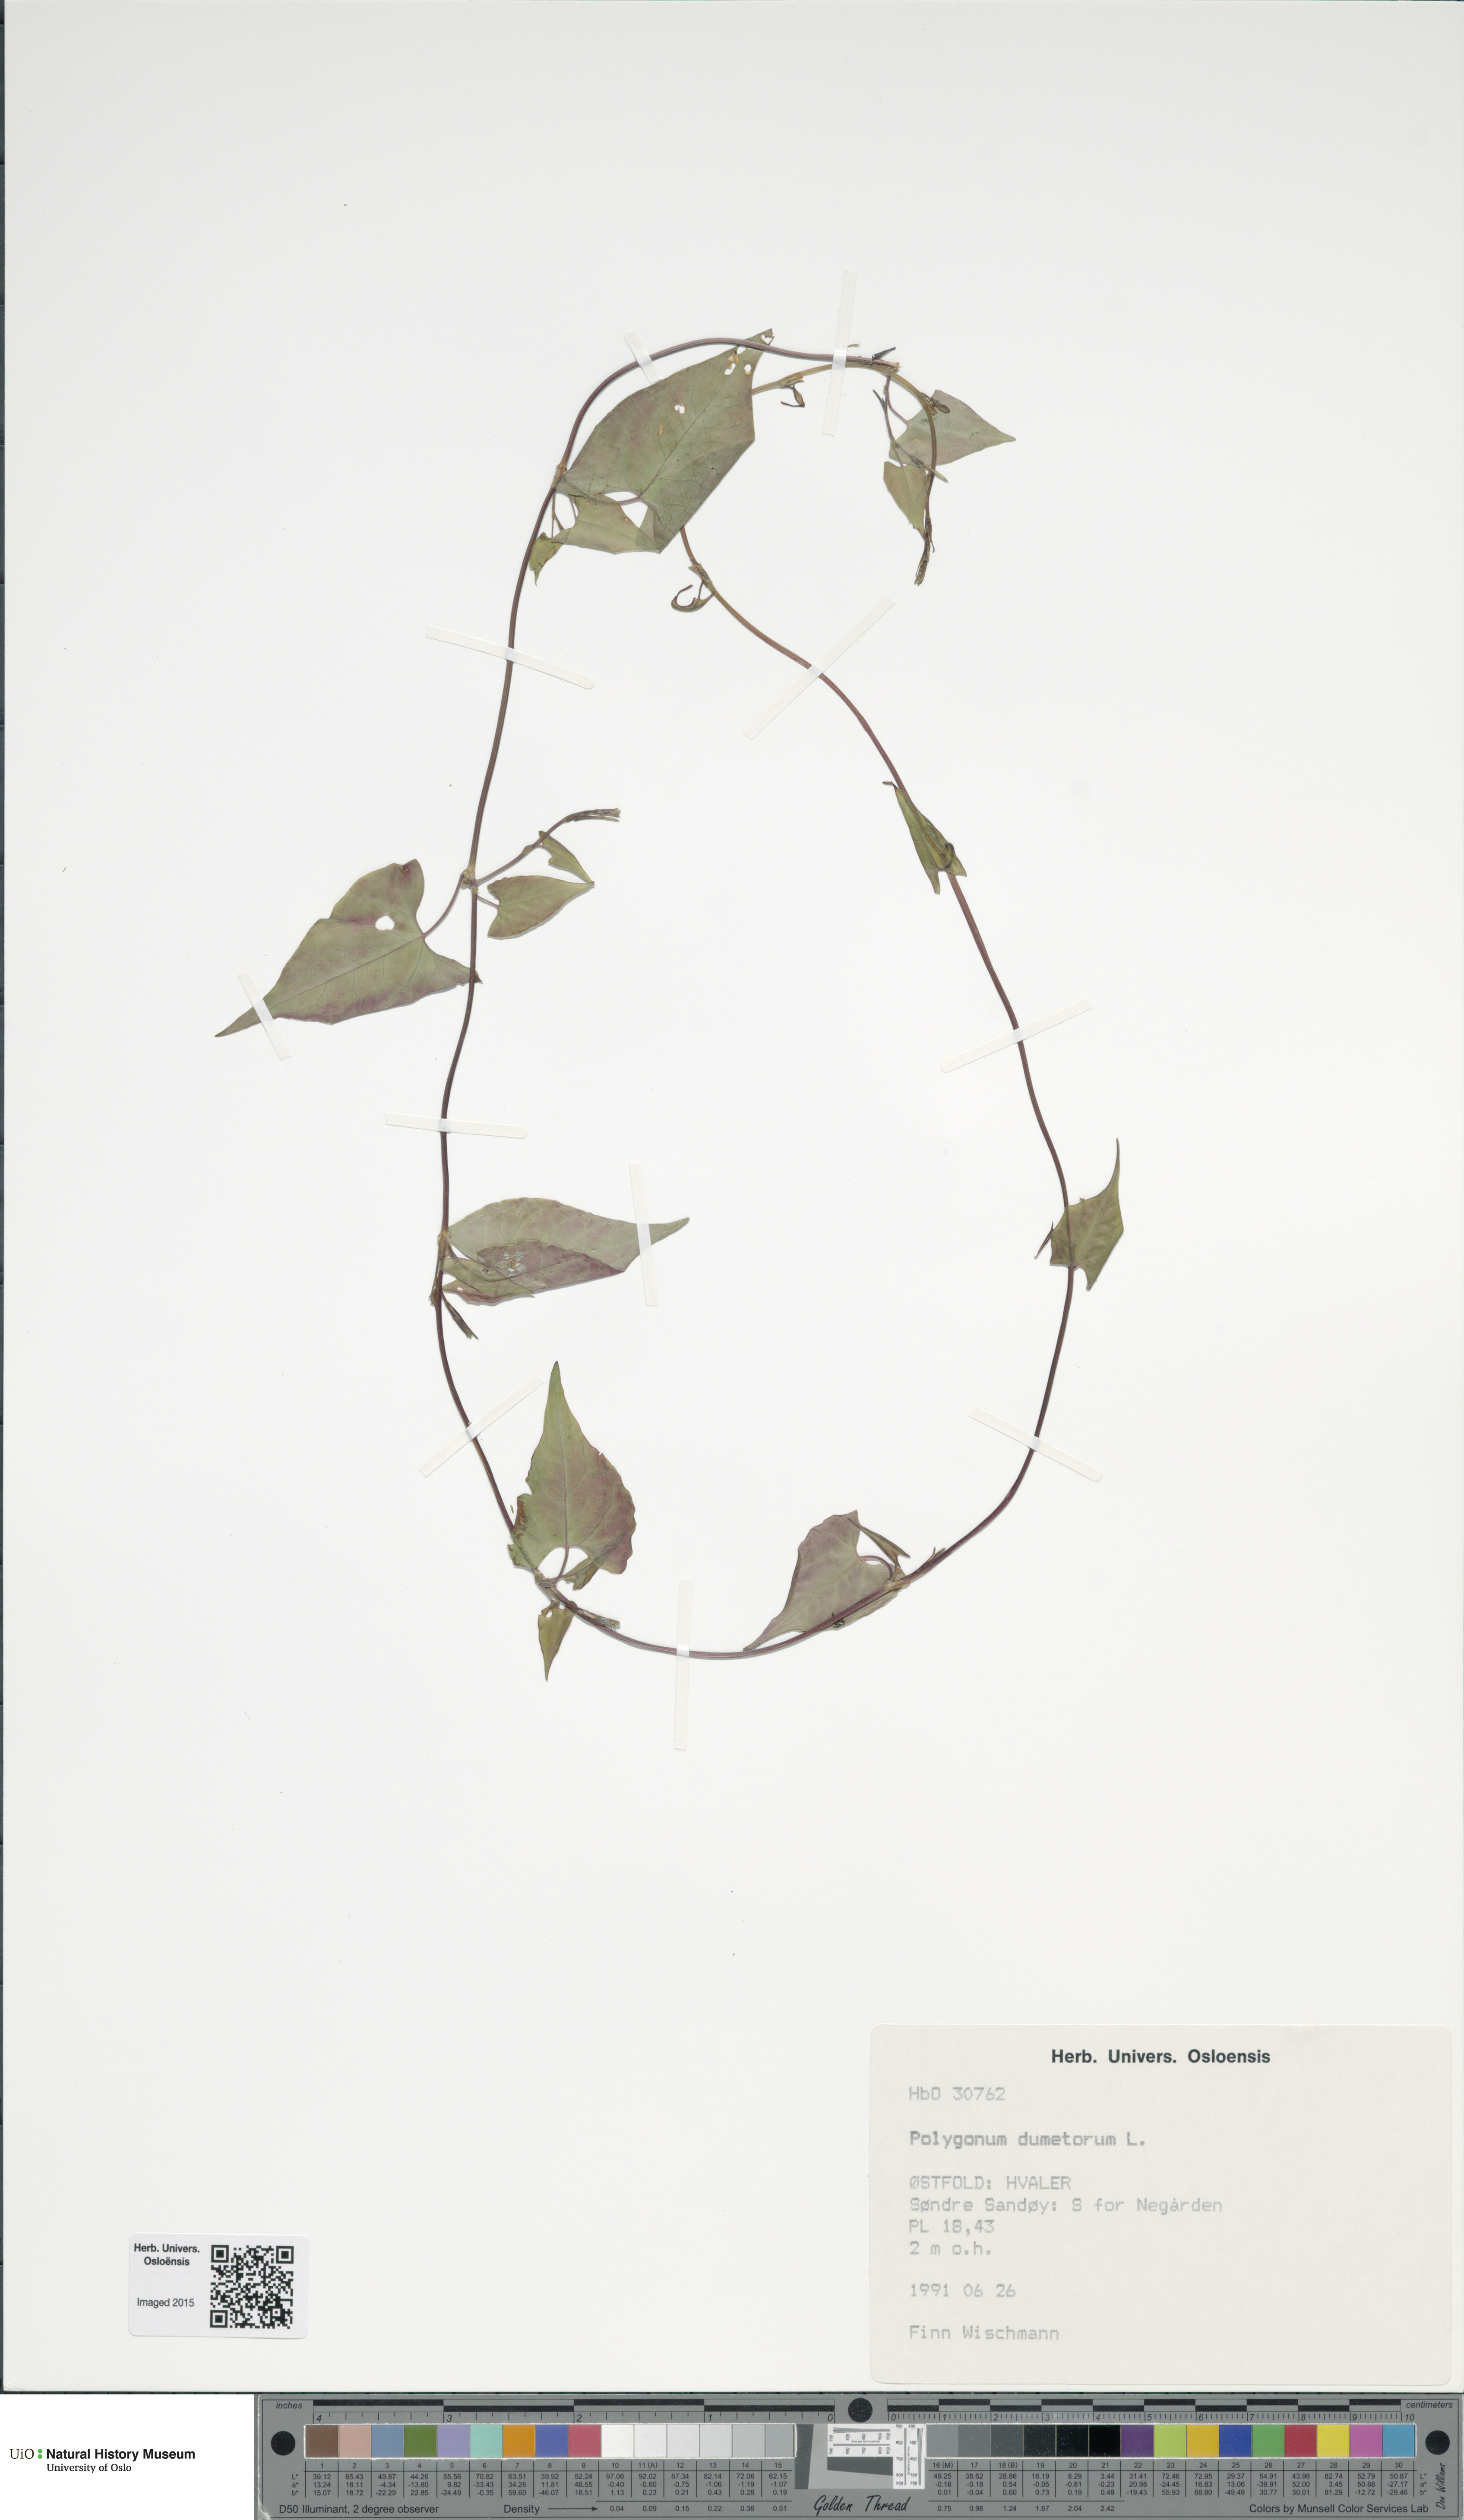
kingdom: Plantae
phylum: Tracheophyta
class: Magnoliopsida
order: Caryophyllales
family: Polygonaceae
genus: Fallopia
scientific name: Fallopia dumetorum
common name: Copse-bindweed
